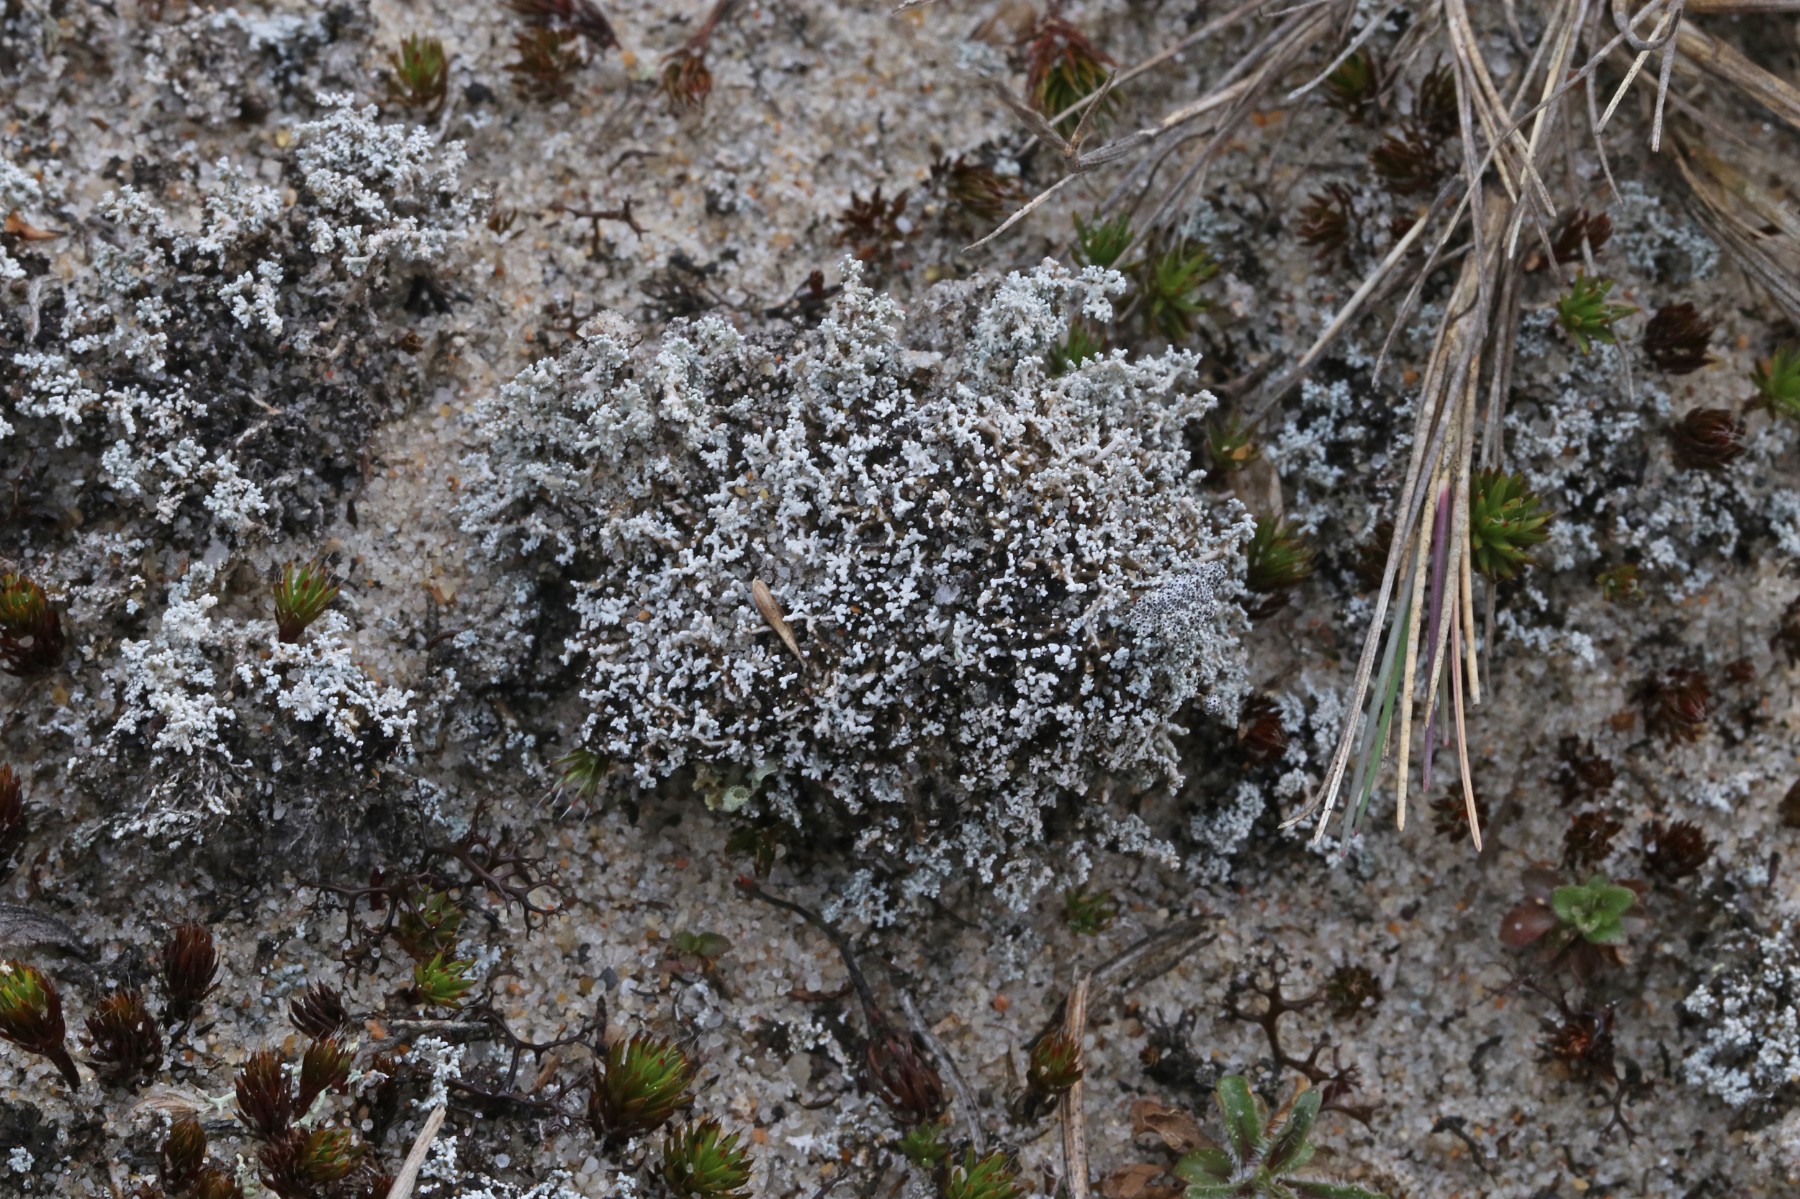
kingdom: Fungi
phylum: Ascomycota
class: Lecanoromycetes
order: Lecanorales
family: Stereocaulaceae
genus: Stereocaulon
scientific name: Stereocaulon condensatum
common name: lav korallav
